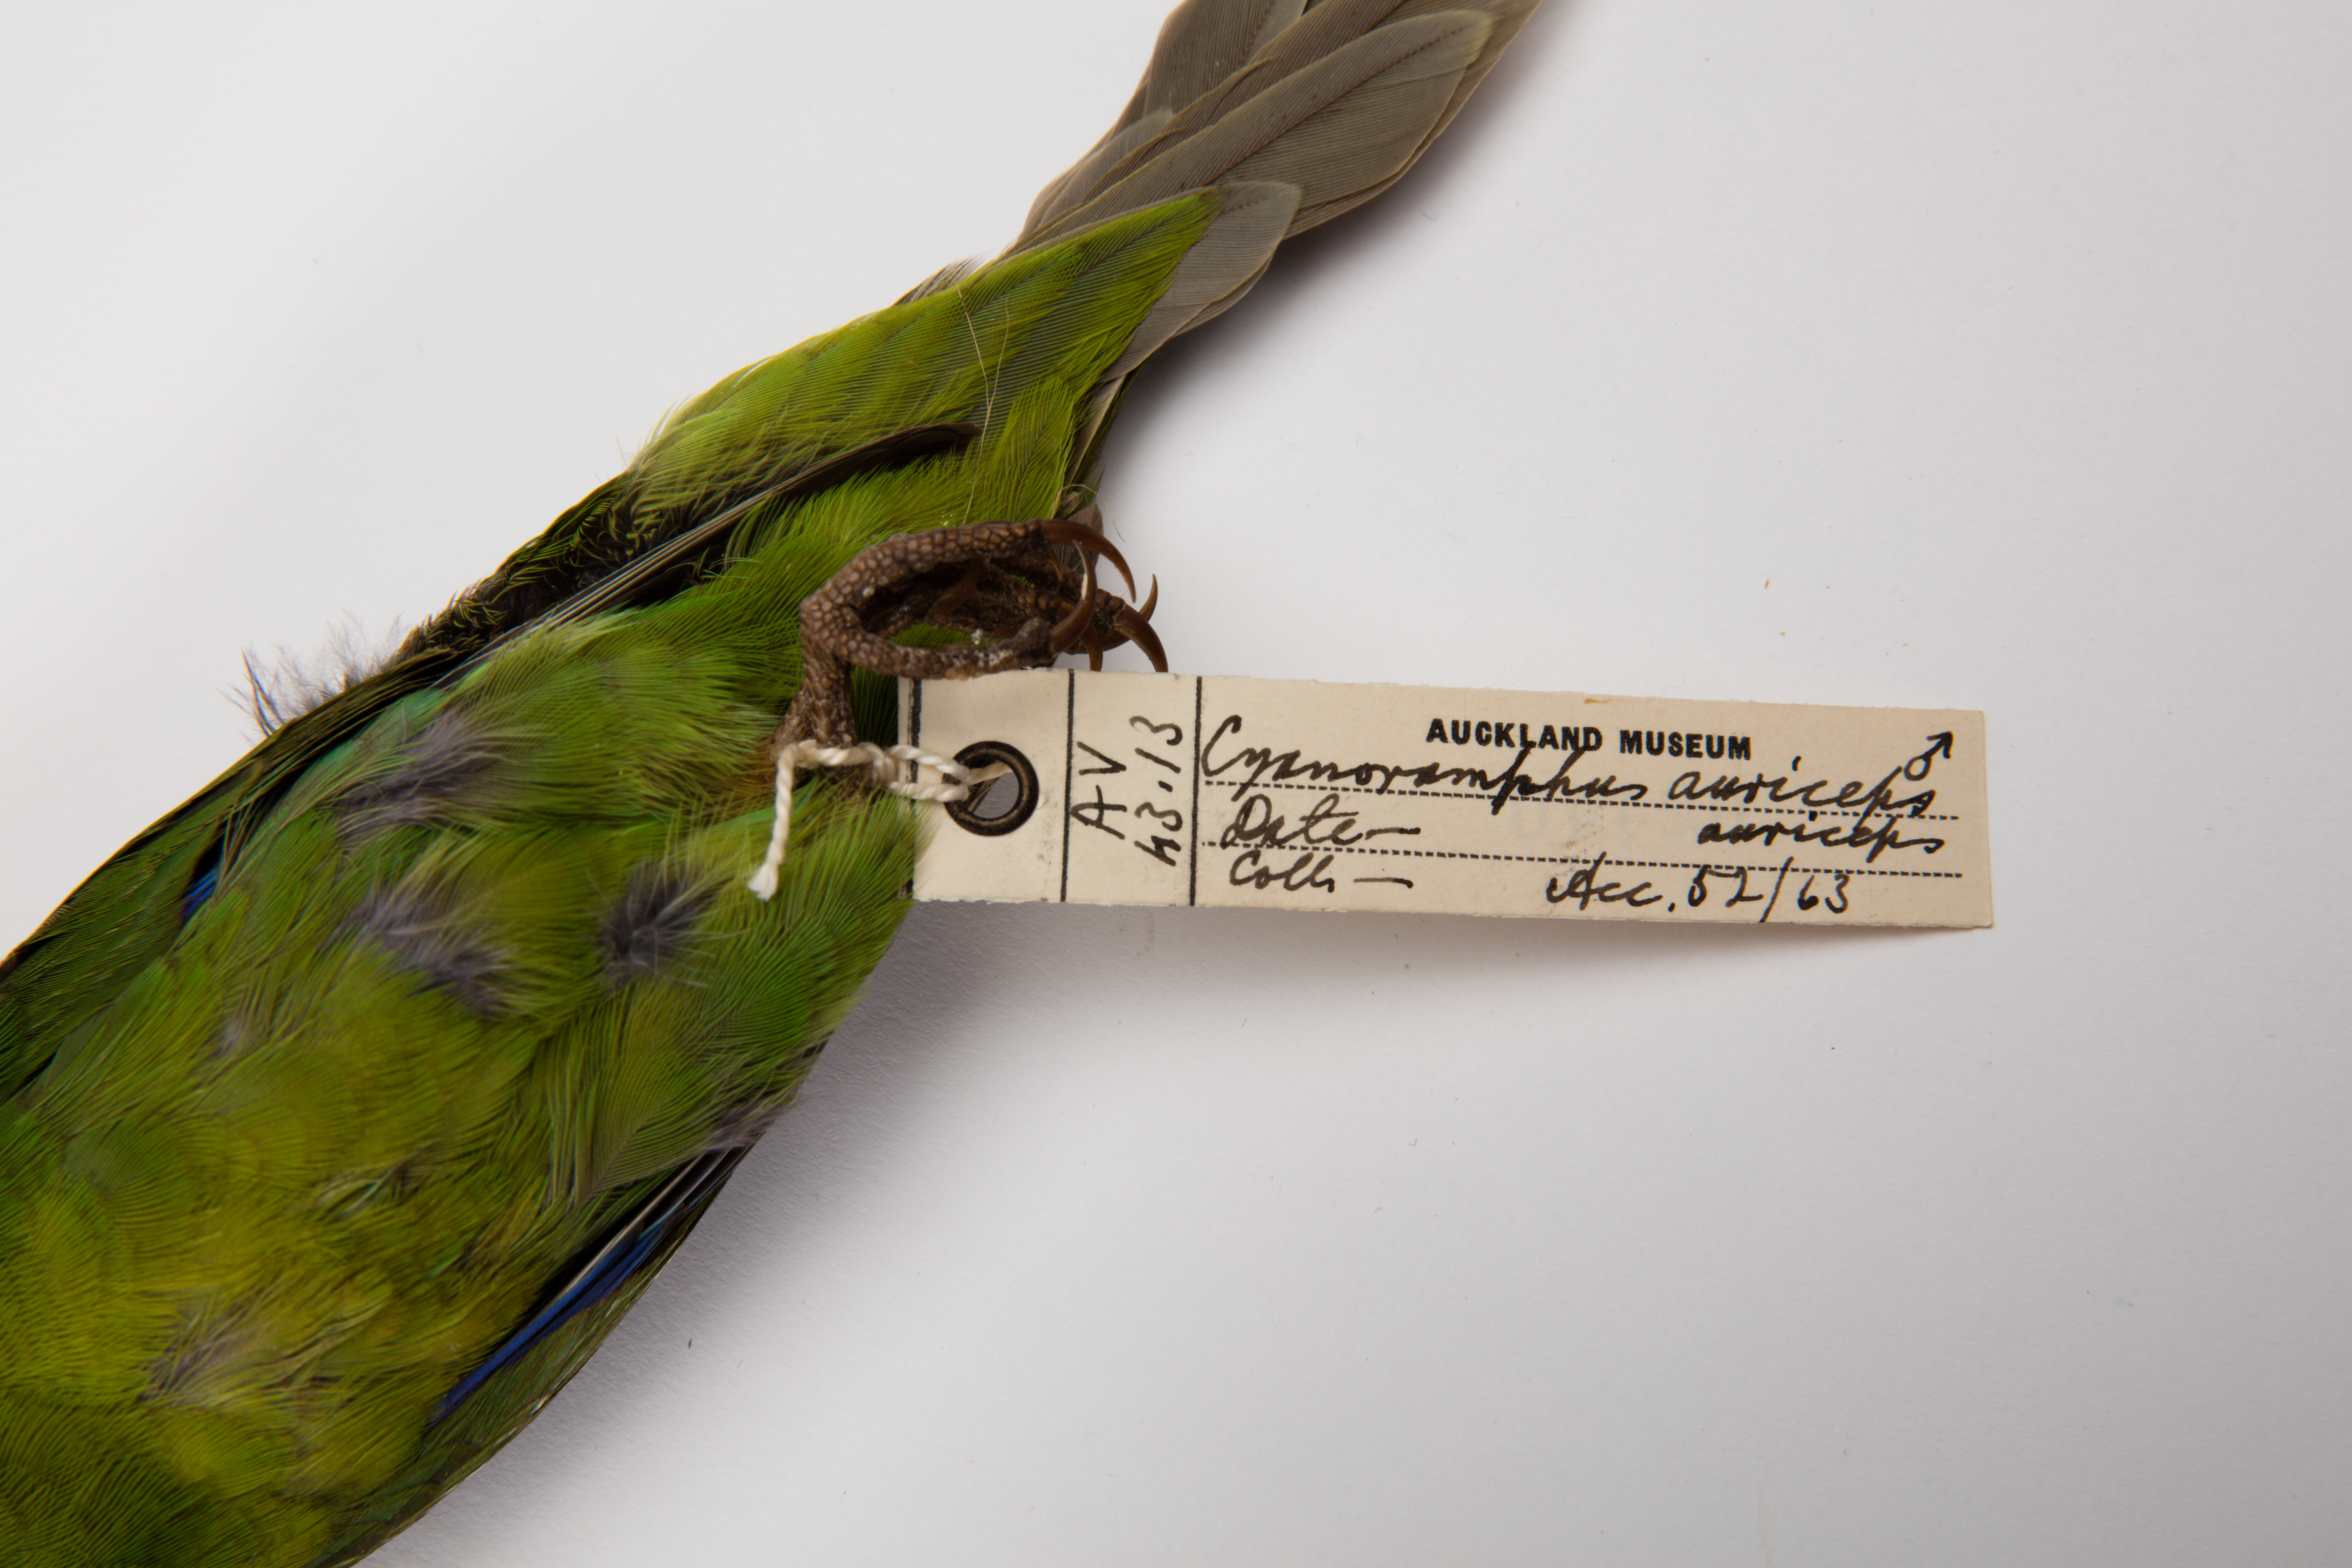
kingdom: Animalia
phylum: Chordata
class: Aves
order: Psittaciformes
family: Psittacidae
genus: Cyanoramphus
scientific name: Cyanoramphus auriceps
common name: Yellow-crowned parakeet
